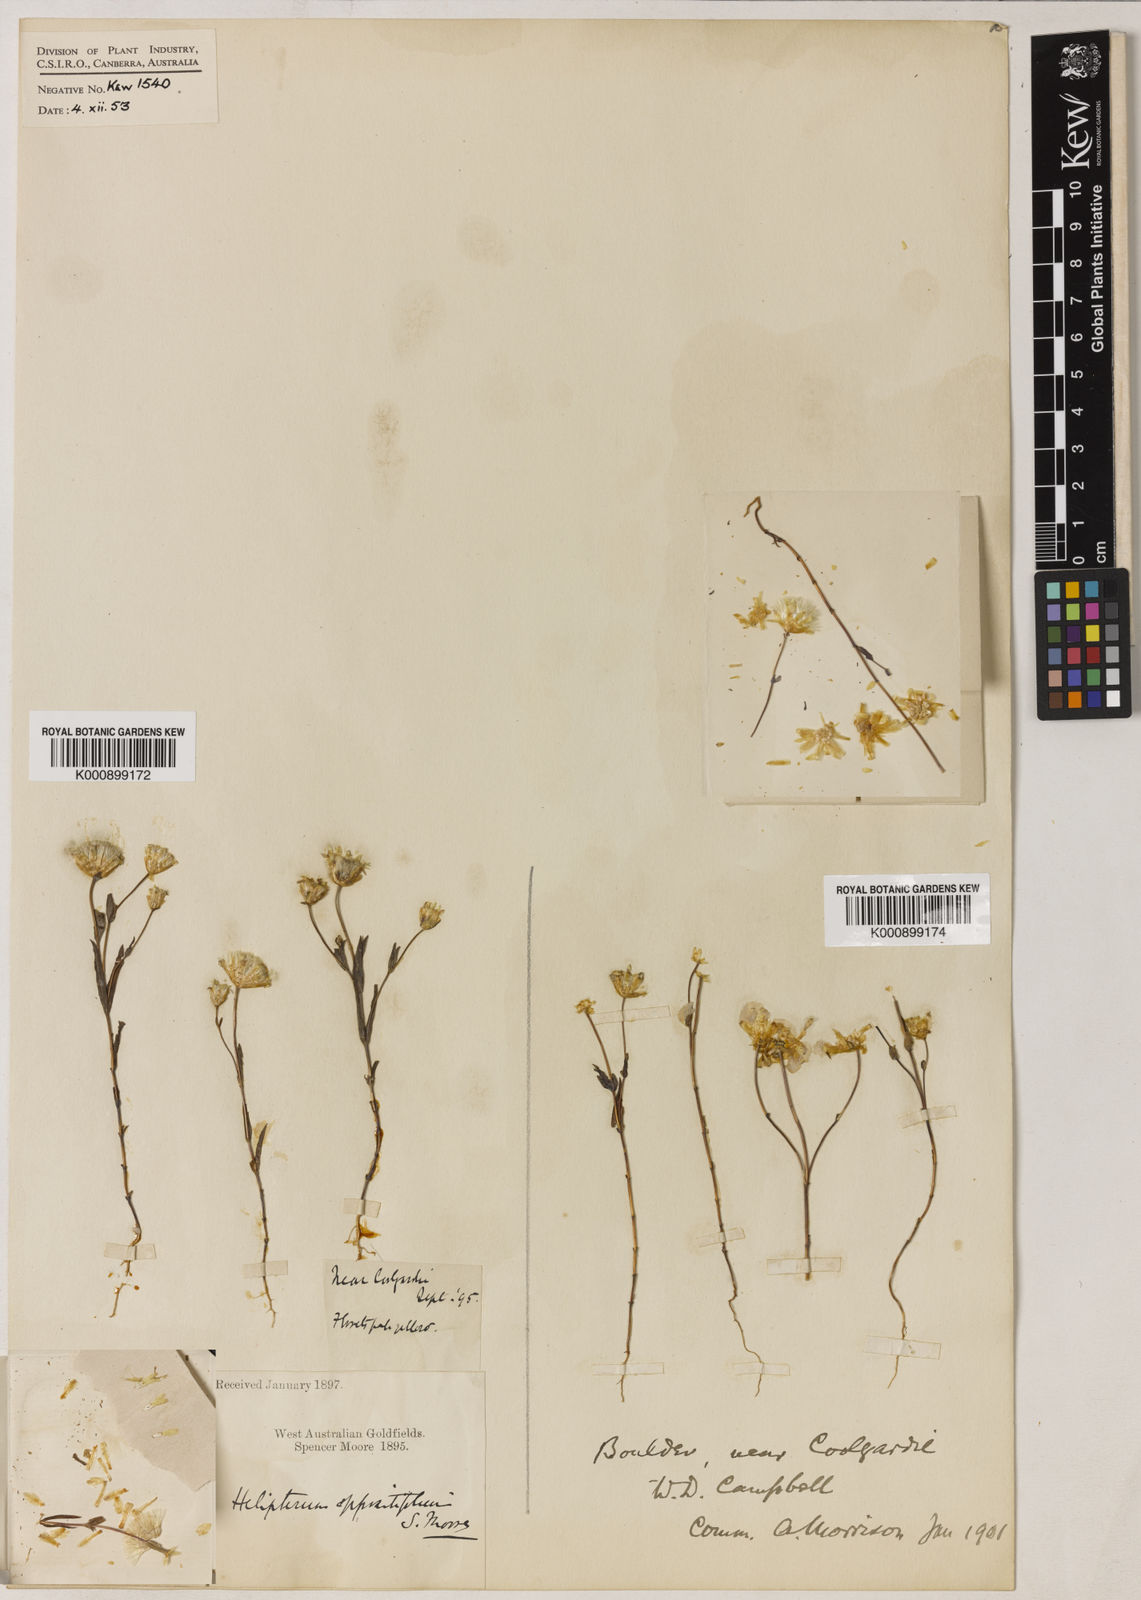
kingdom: Plantae
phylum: Tracheophyta
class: Magnoliopsida
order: Asterales
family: Asteraceae
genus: Rhodanthe
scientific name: Rhodanthe oppositifolia
